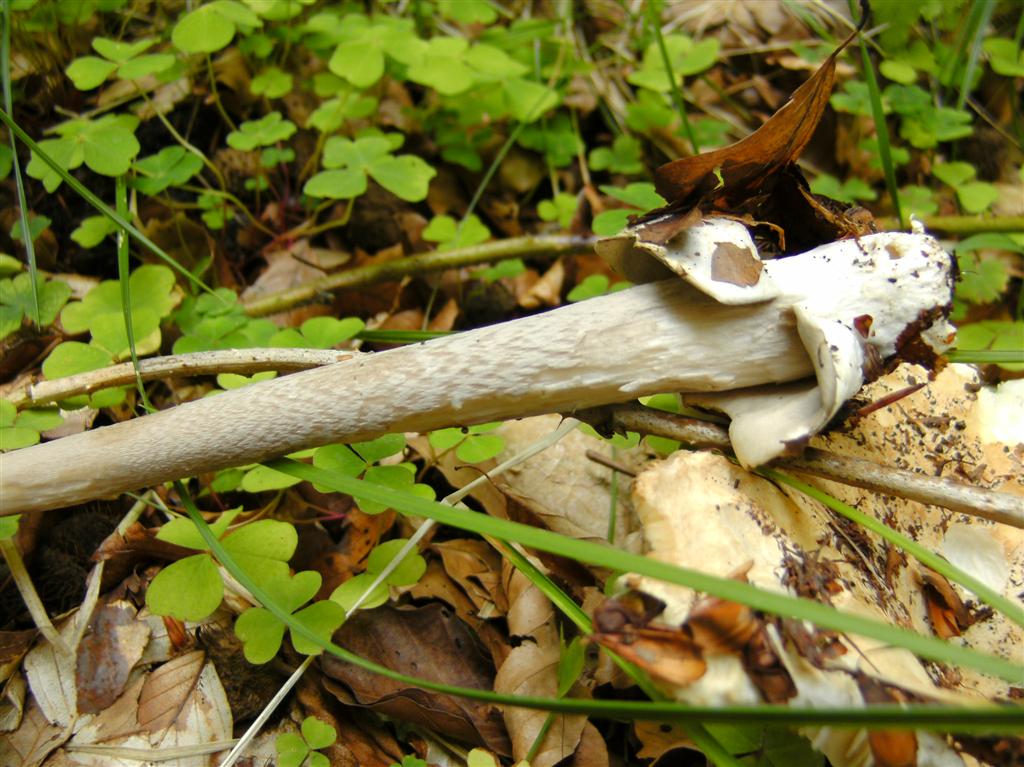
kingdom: Fungi
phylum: Basidiomycota
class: Agaricomycetes
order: Agaricales
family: Amanitaceae
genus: Amanita
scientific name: Amanita
